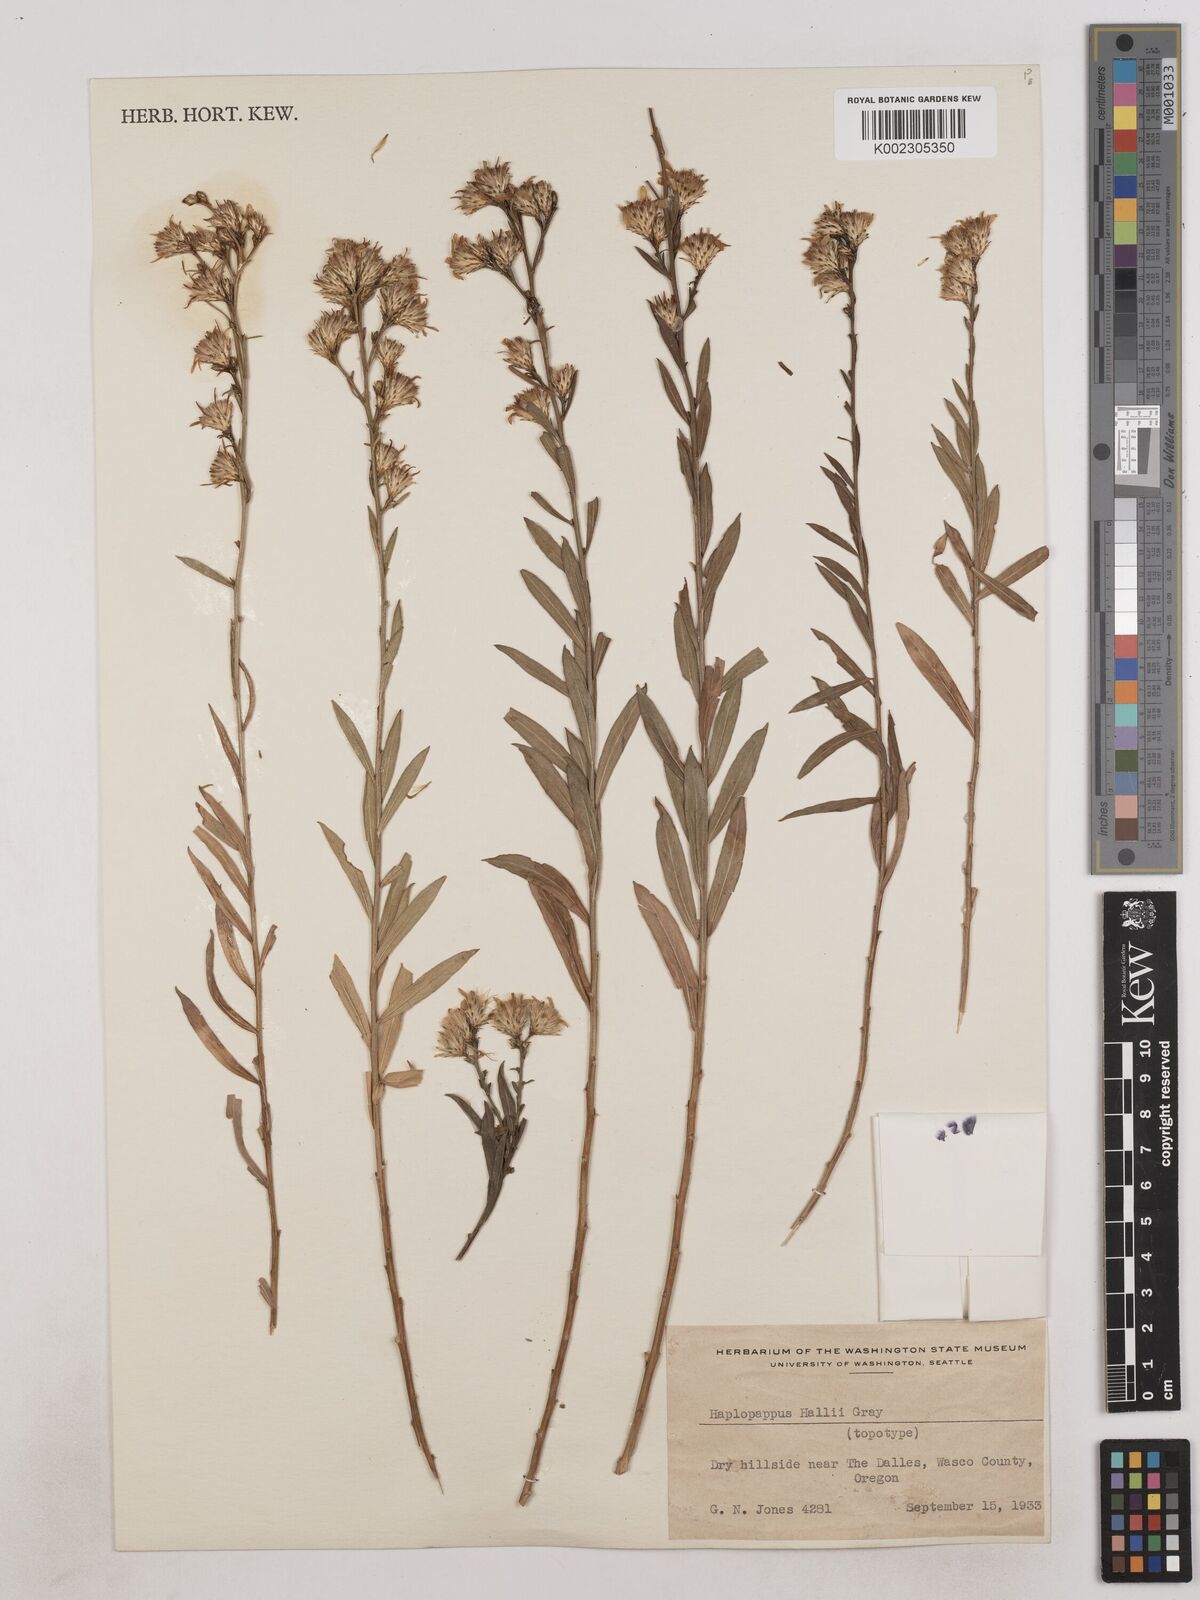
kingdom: Plantae
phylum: Tracheophyta
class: Magnoliopsida
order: Asterales
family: Asteraceae
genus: Columbiadoria
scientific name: Columbiadoria hallii
